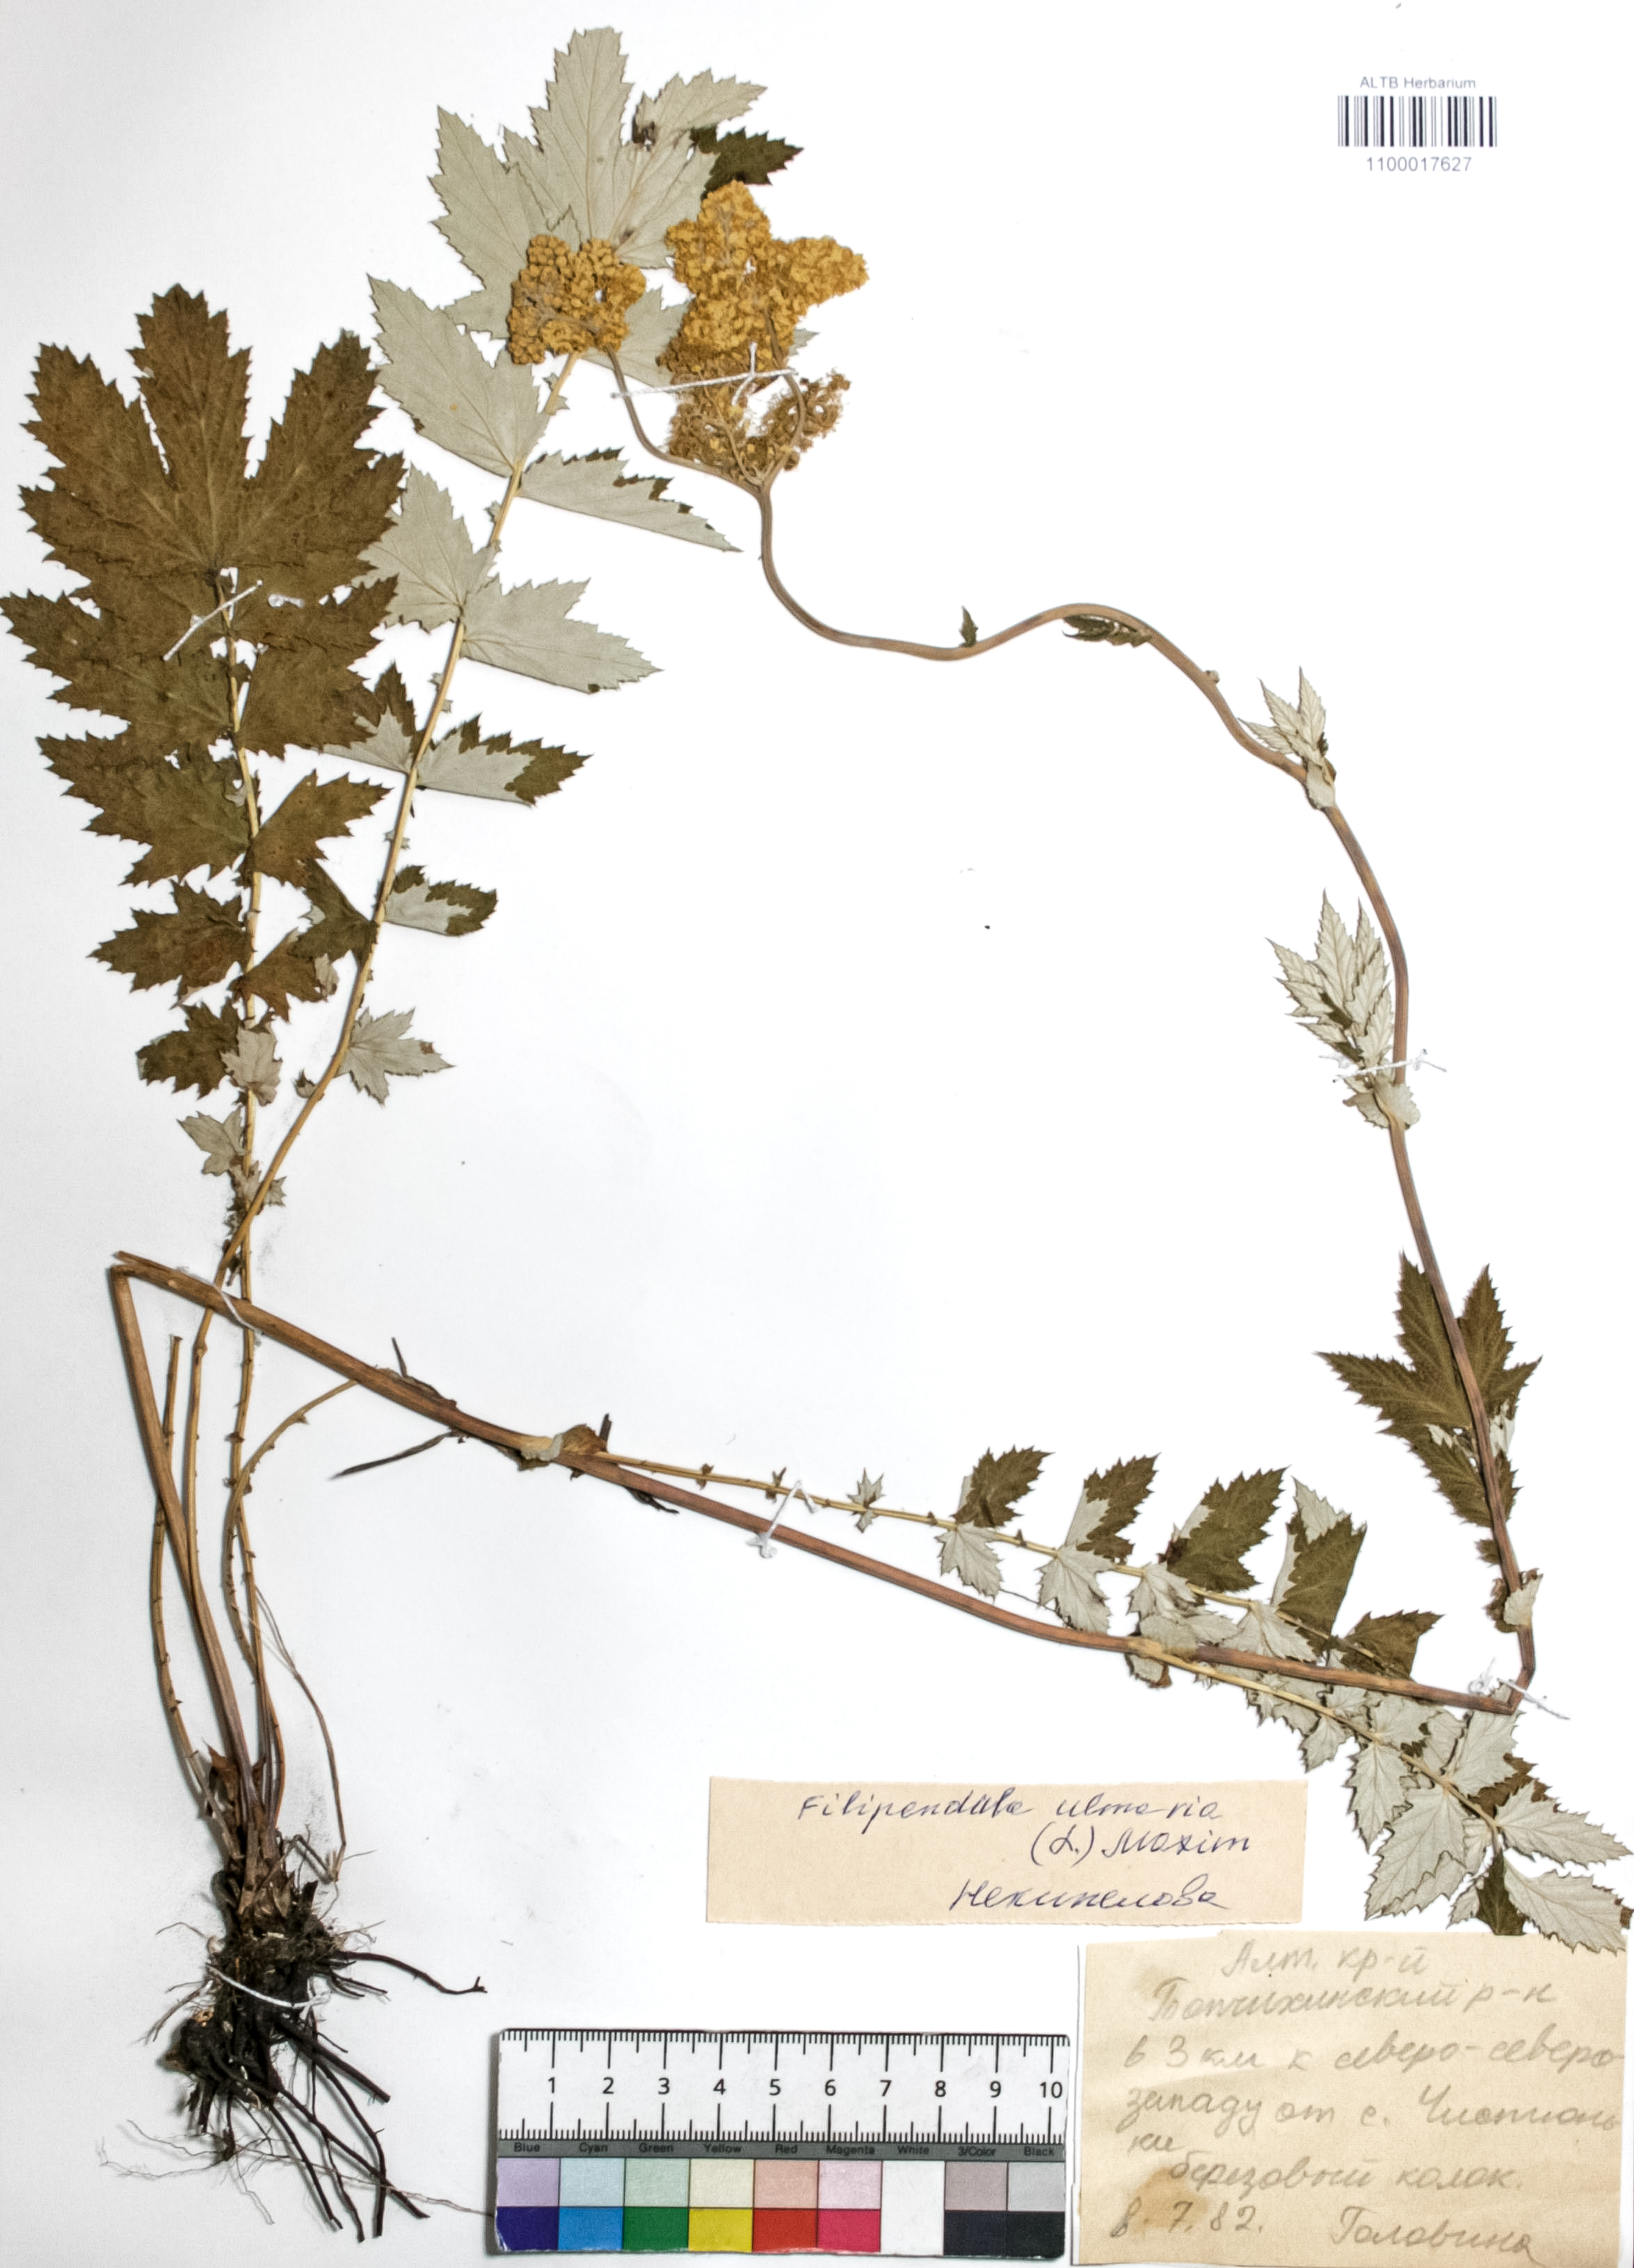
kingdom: Plantae
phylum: Tracheophyta
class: Magnoliopsida
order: Rosales
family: Rosaceae
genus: Filipendula
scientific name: Filipendula ulmaria
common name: Meadowsweet
